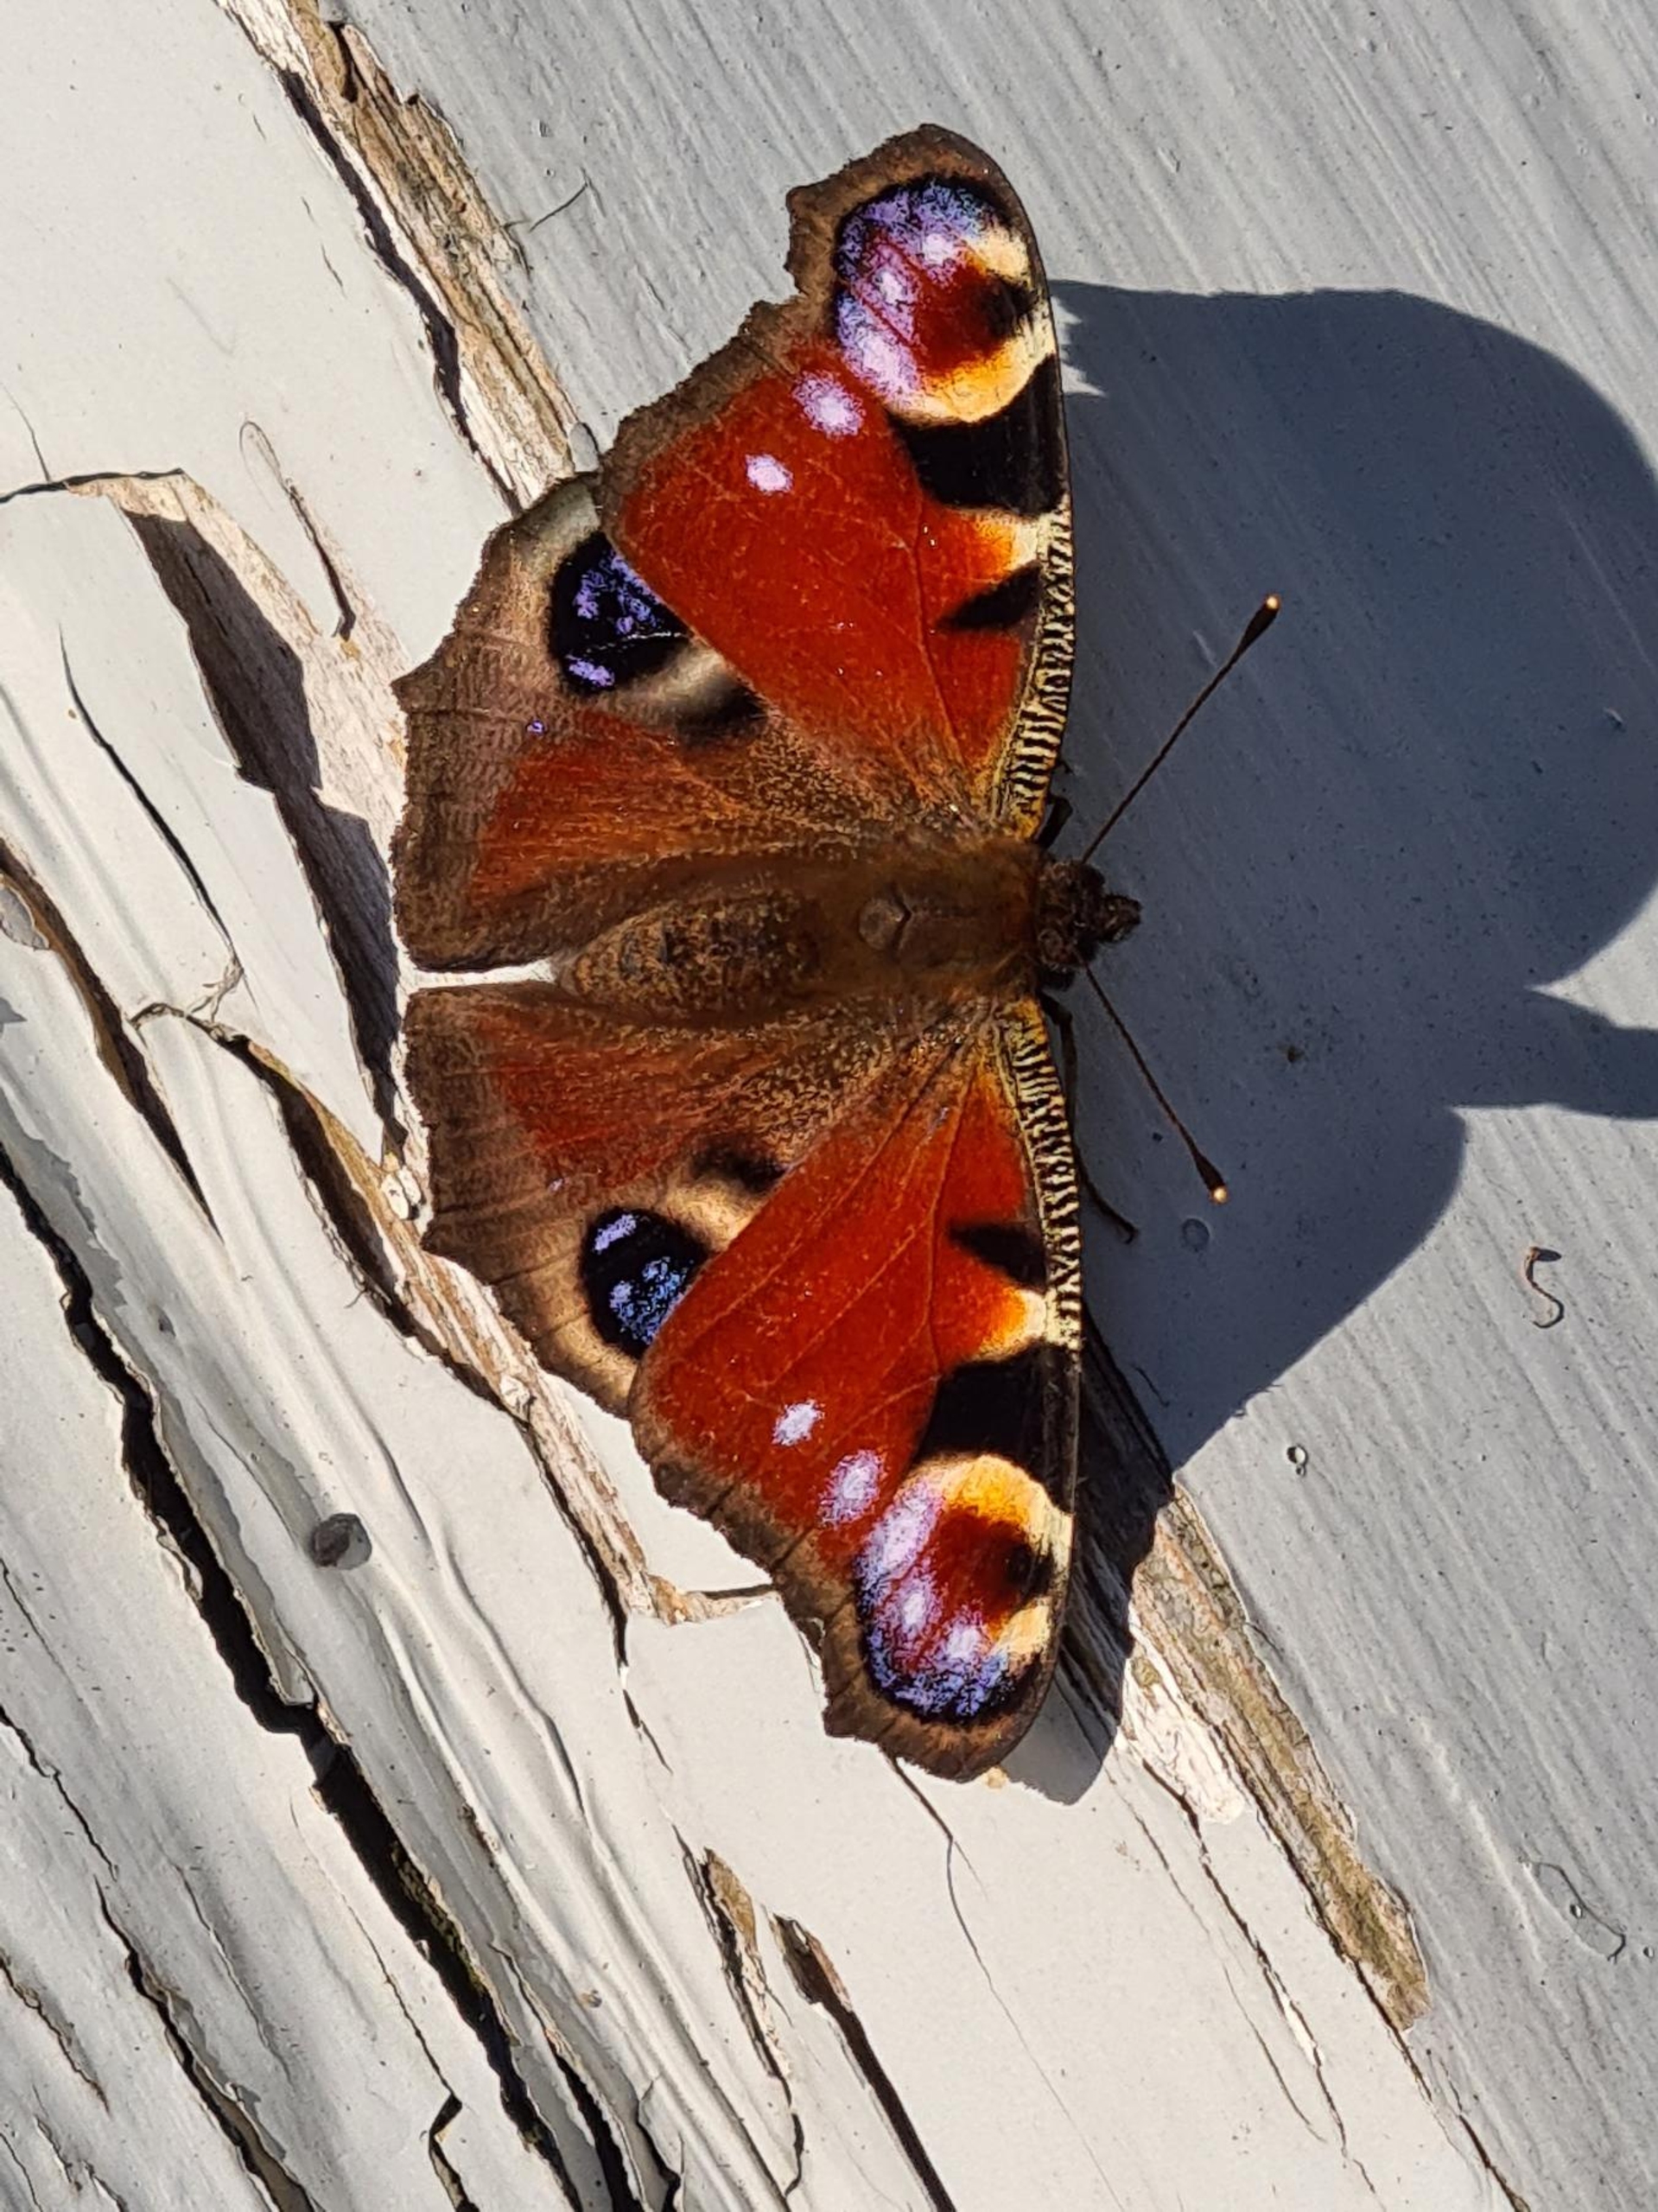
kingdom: Animalia
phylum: Arthropoda
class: Insecta
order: Lepidoptera
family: Nymphalidae
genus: Aglais
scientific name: Aglais io
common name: Dagpåfugleøje
